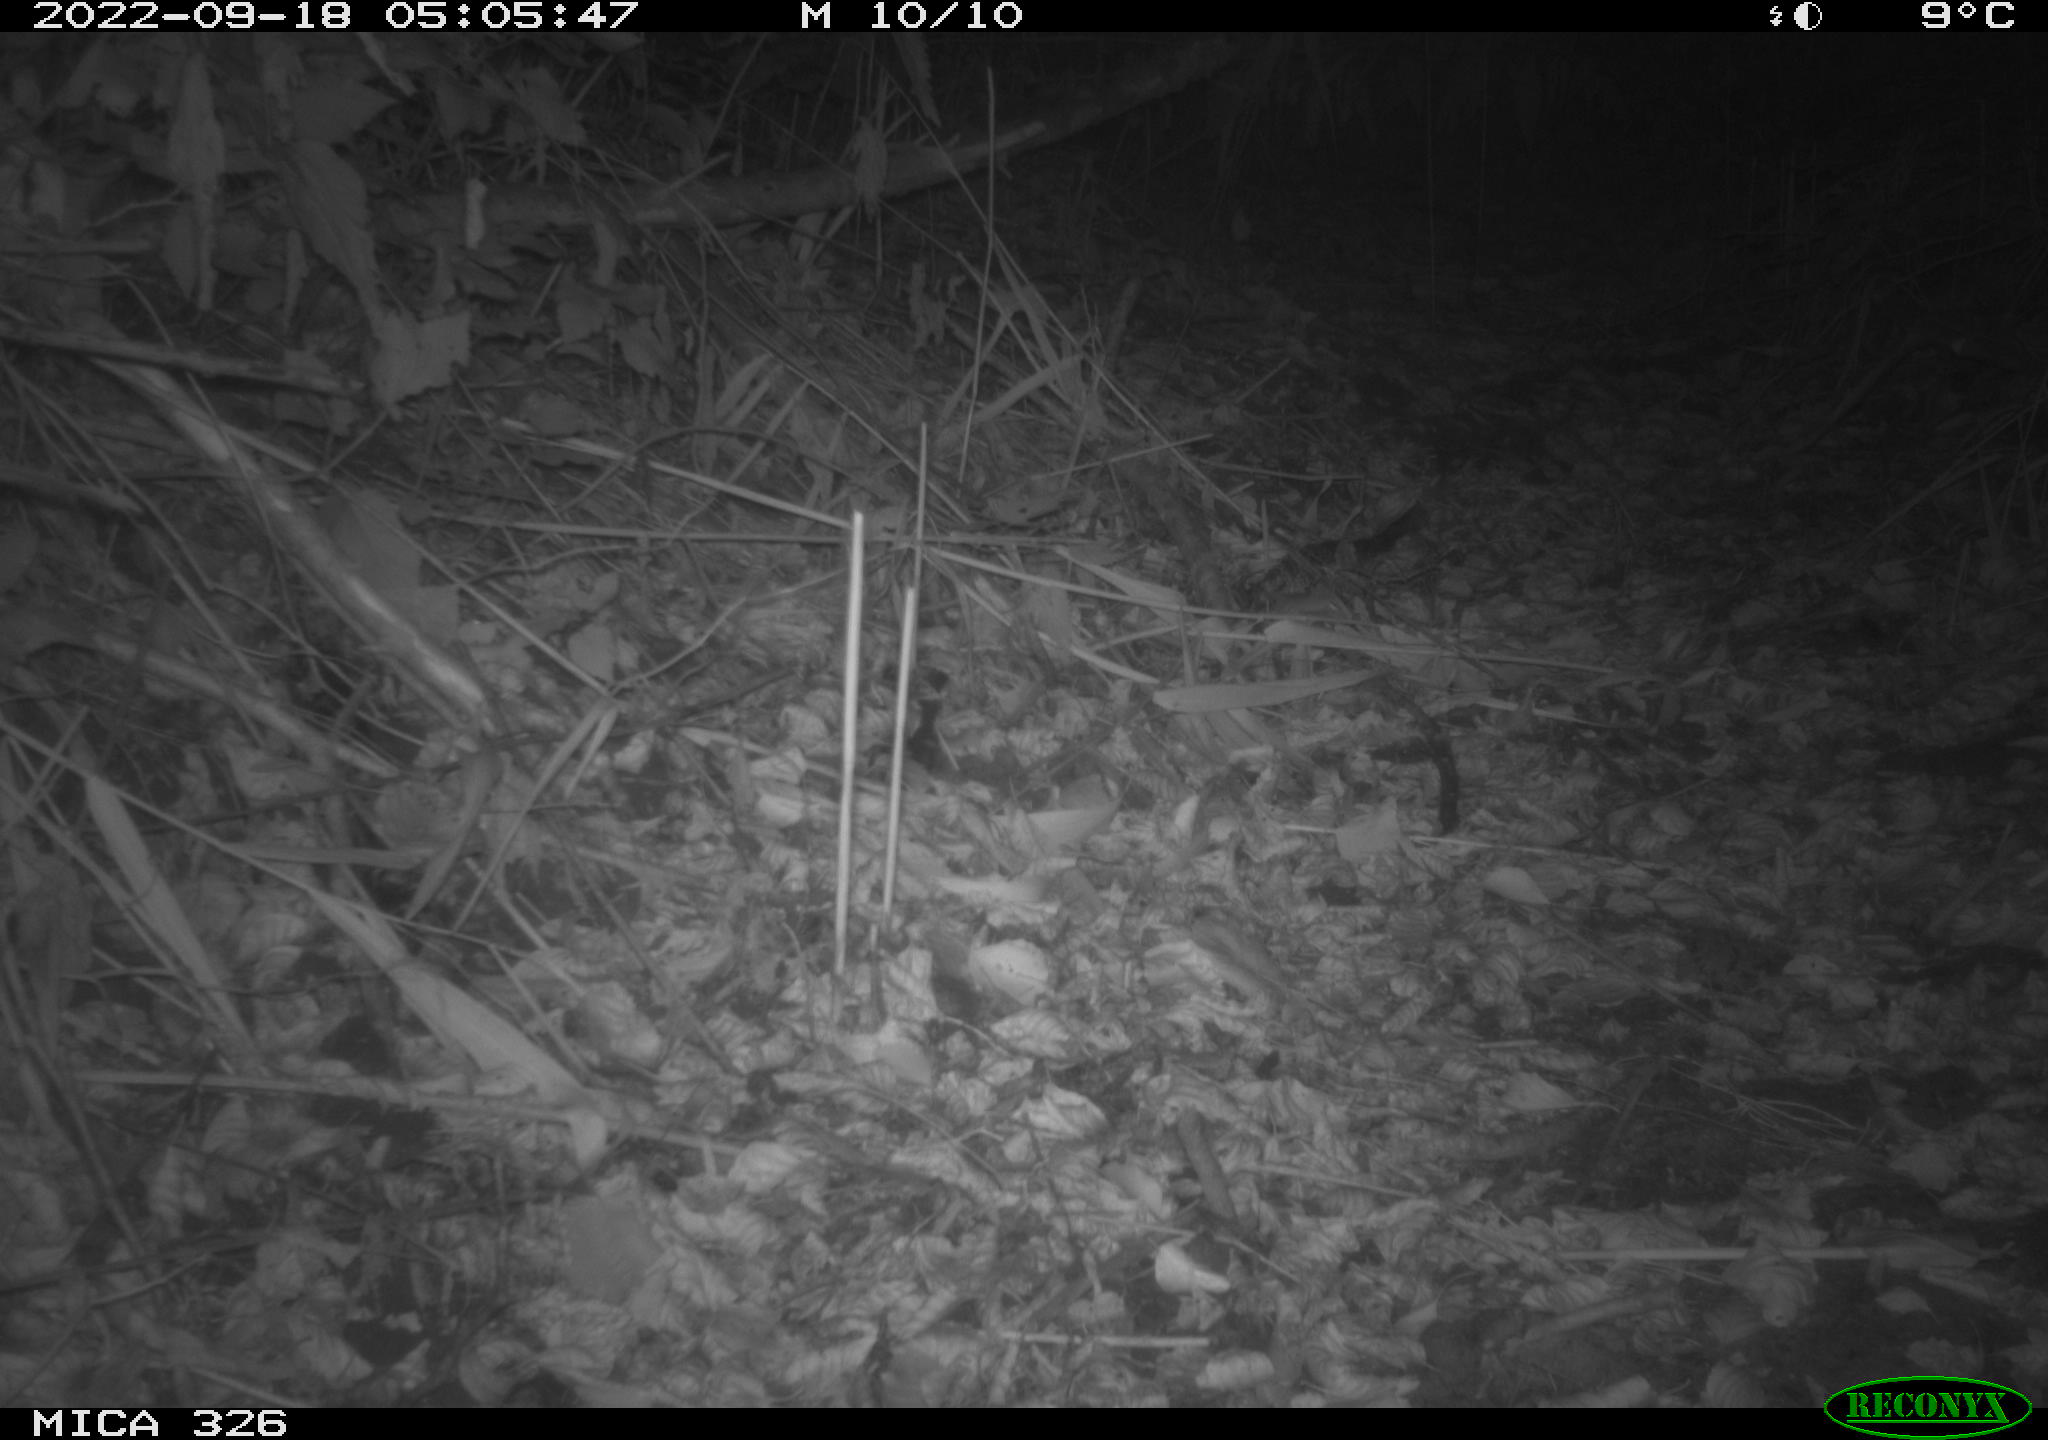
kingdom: Animalia
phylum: Chordata
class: Mammalia
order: Carnivora
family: Mustelidae
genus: Martes
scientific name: Martes martes
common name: European pine marten
